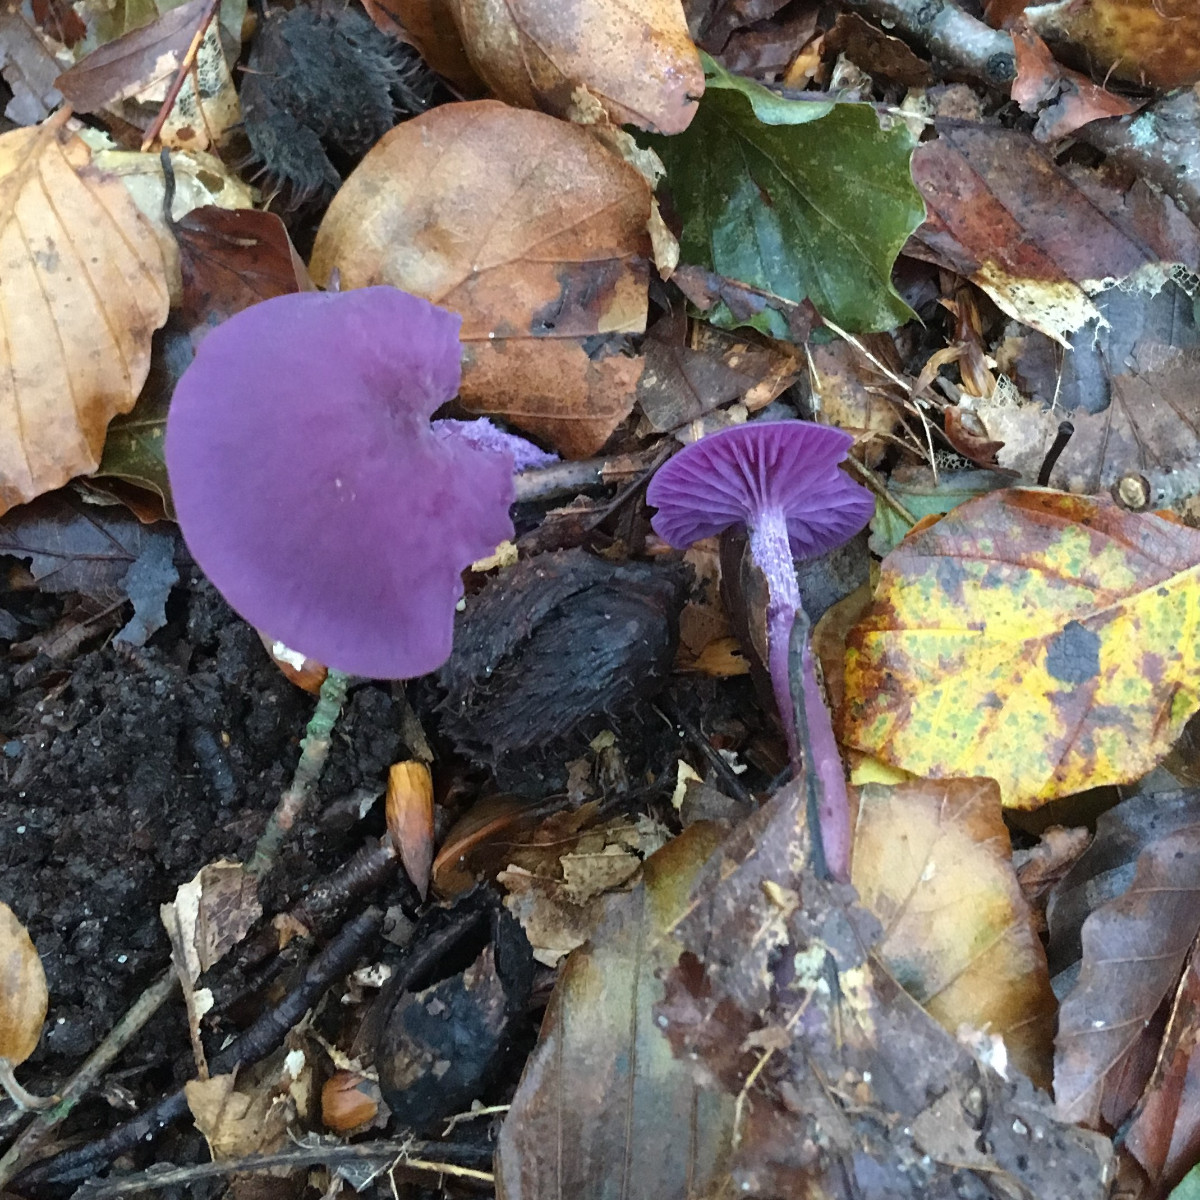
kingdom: Fungi
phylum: Basidiomycota
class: Agaricomycetes
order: Agaricales
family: Hydnangiaceae
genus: Laccaria
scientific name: Laccaria amethystina
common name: violet ametysthat
